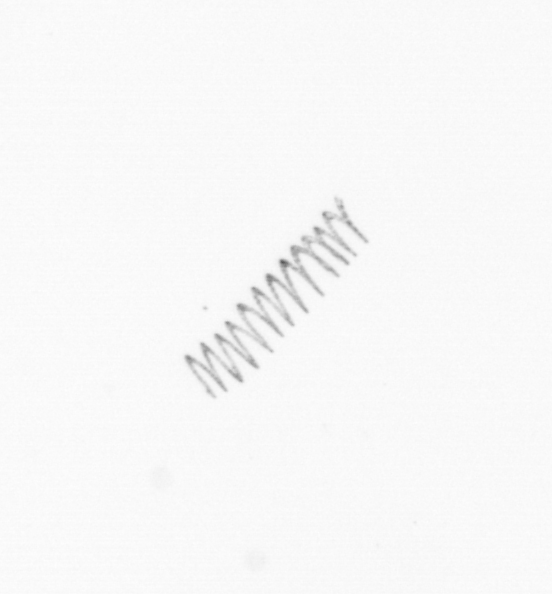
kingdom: Chromista
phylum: Ochrophyta
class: Bacillariophyceae
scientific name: Bacillariophyceae
